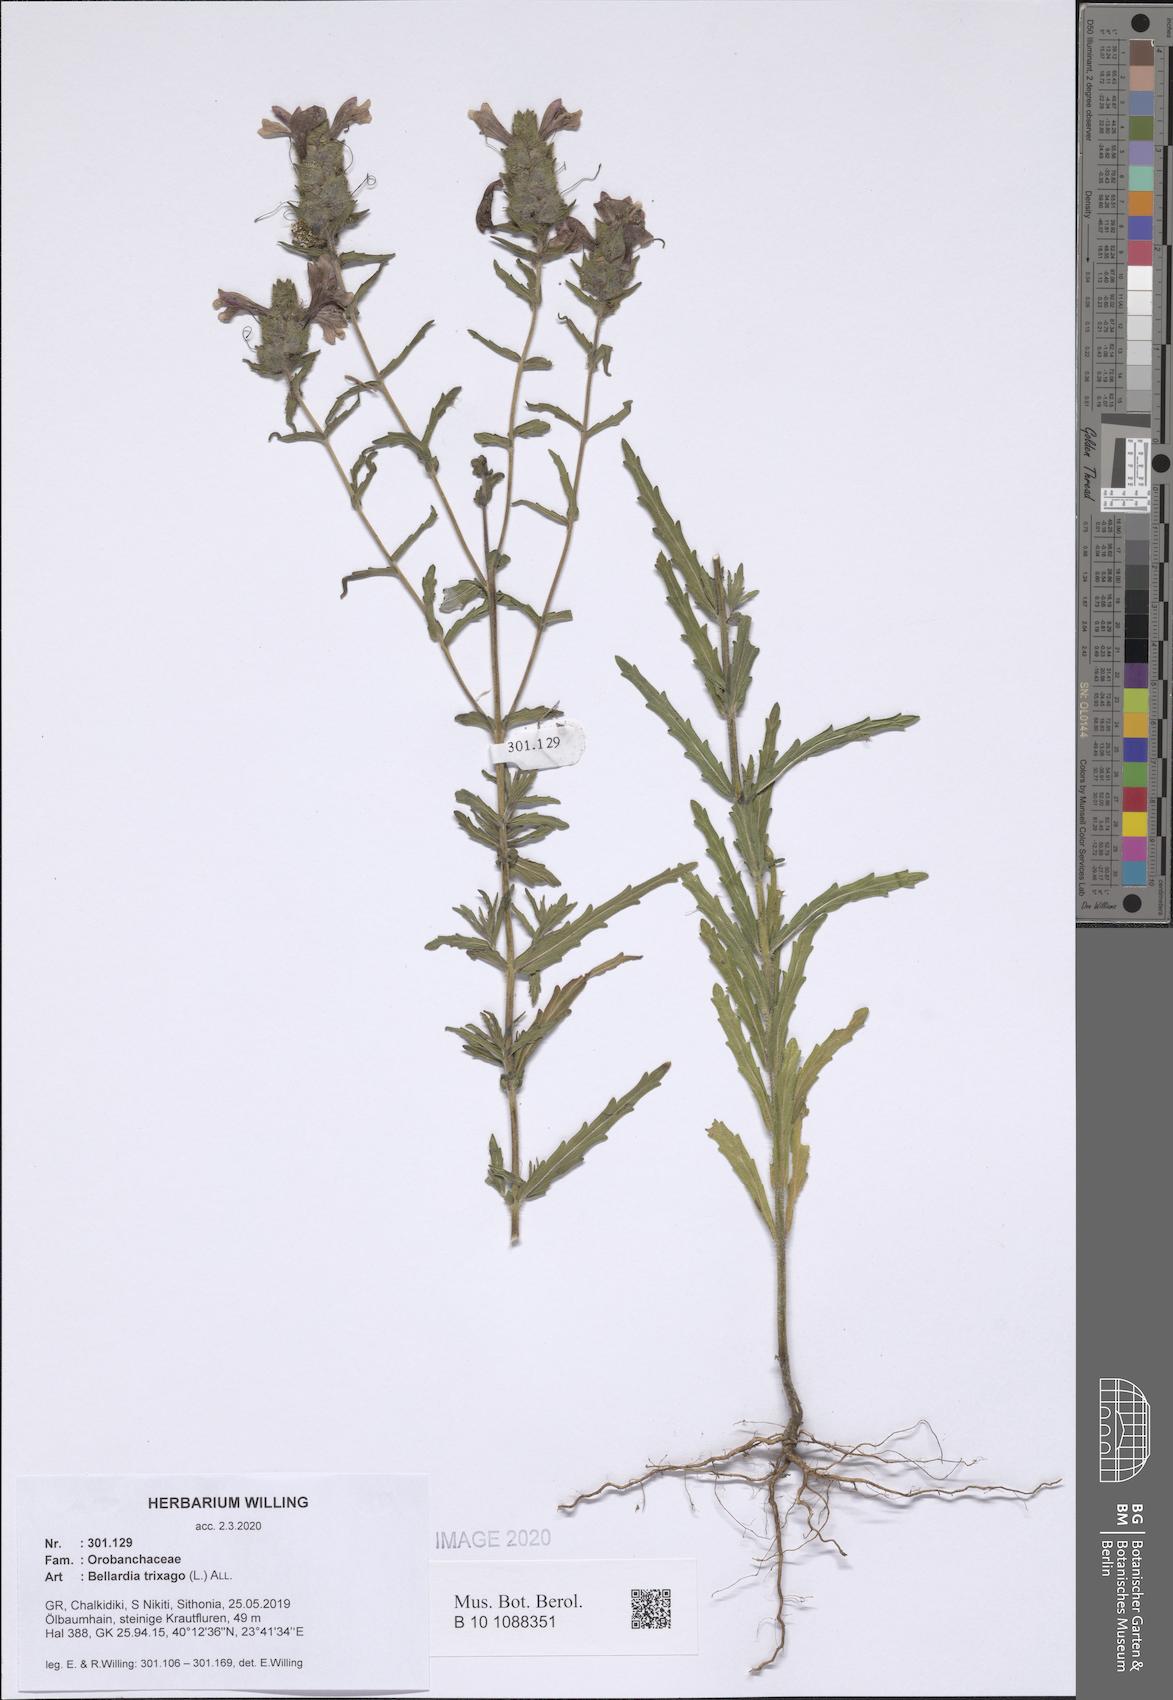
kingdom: Plantae
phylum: Tracheophyta
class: Magnoliopsida
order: Lamiales
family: Orobanchaceae
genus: Bellardia
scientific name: Bellardia trixago
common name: Mediterranean lineseed
